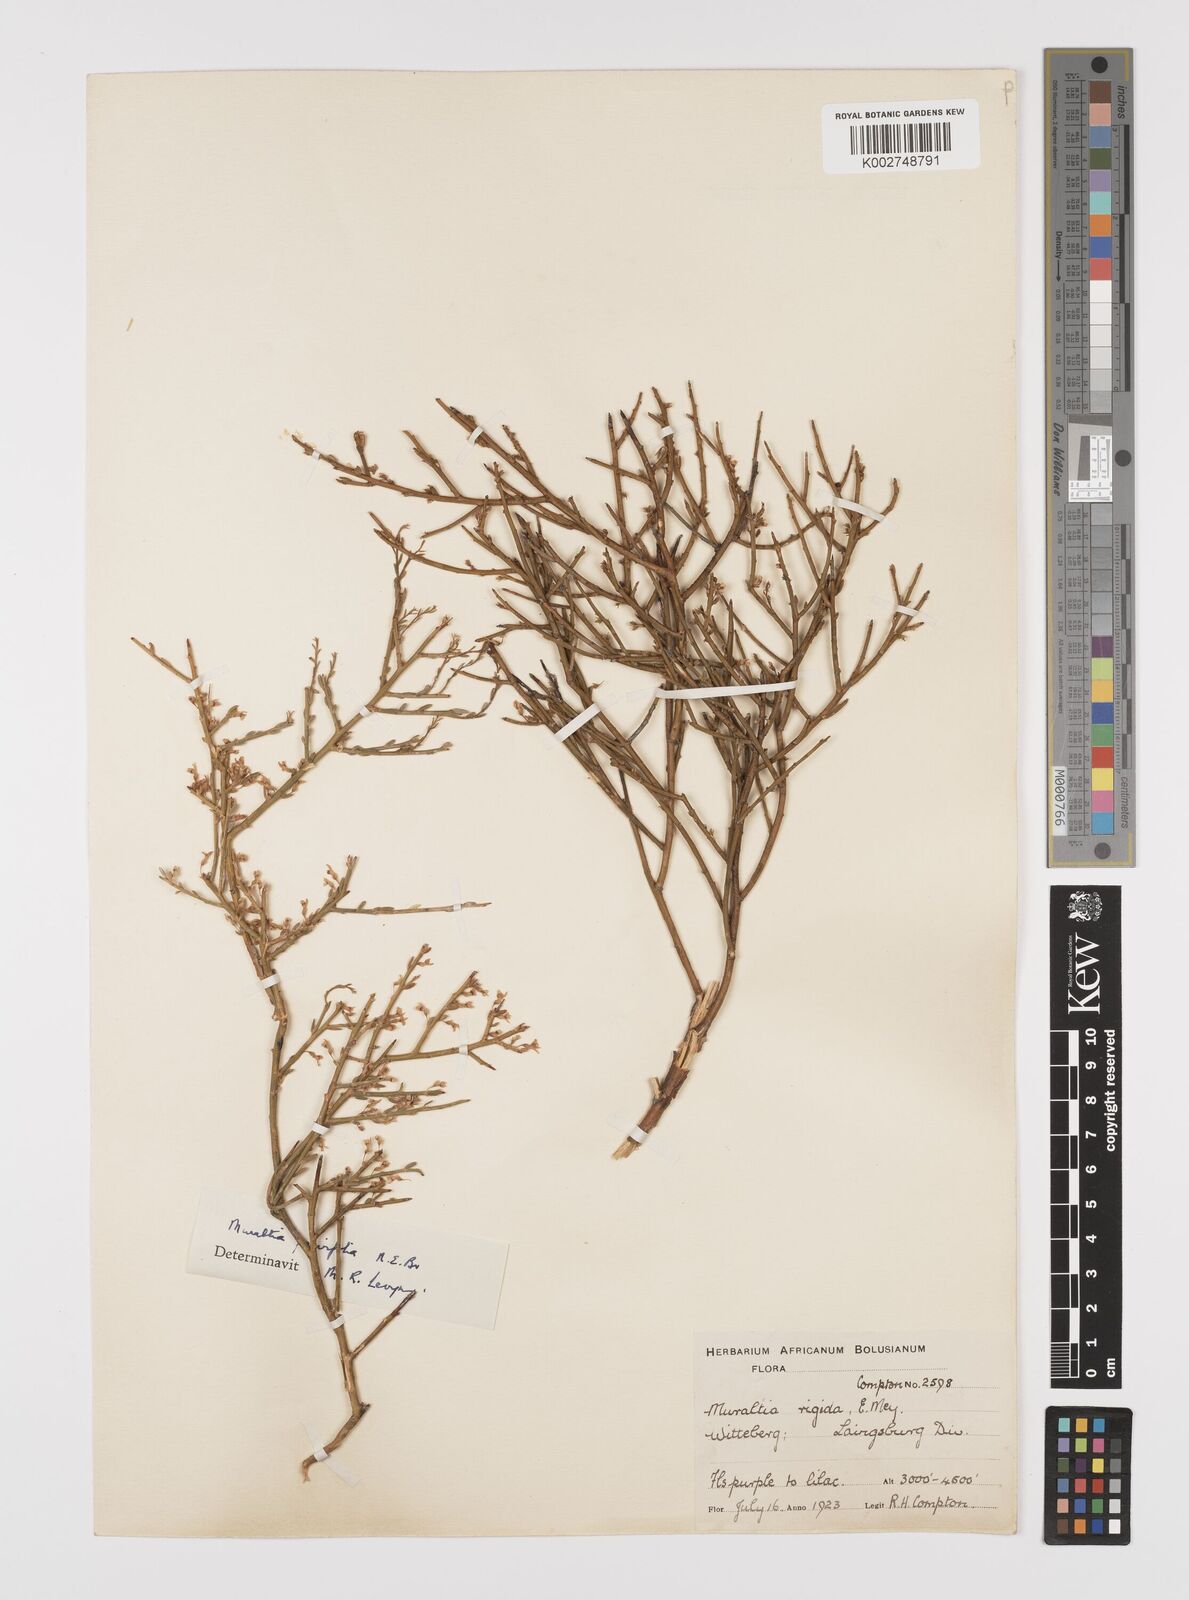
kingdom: Plantae
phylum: Tracheophyta
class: Magnoliopsida
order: Fabales
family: Polygalaceae
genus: Muraltia
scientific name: Muraltia scoparia
